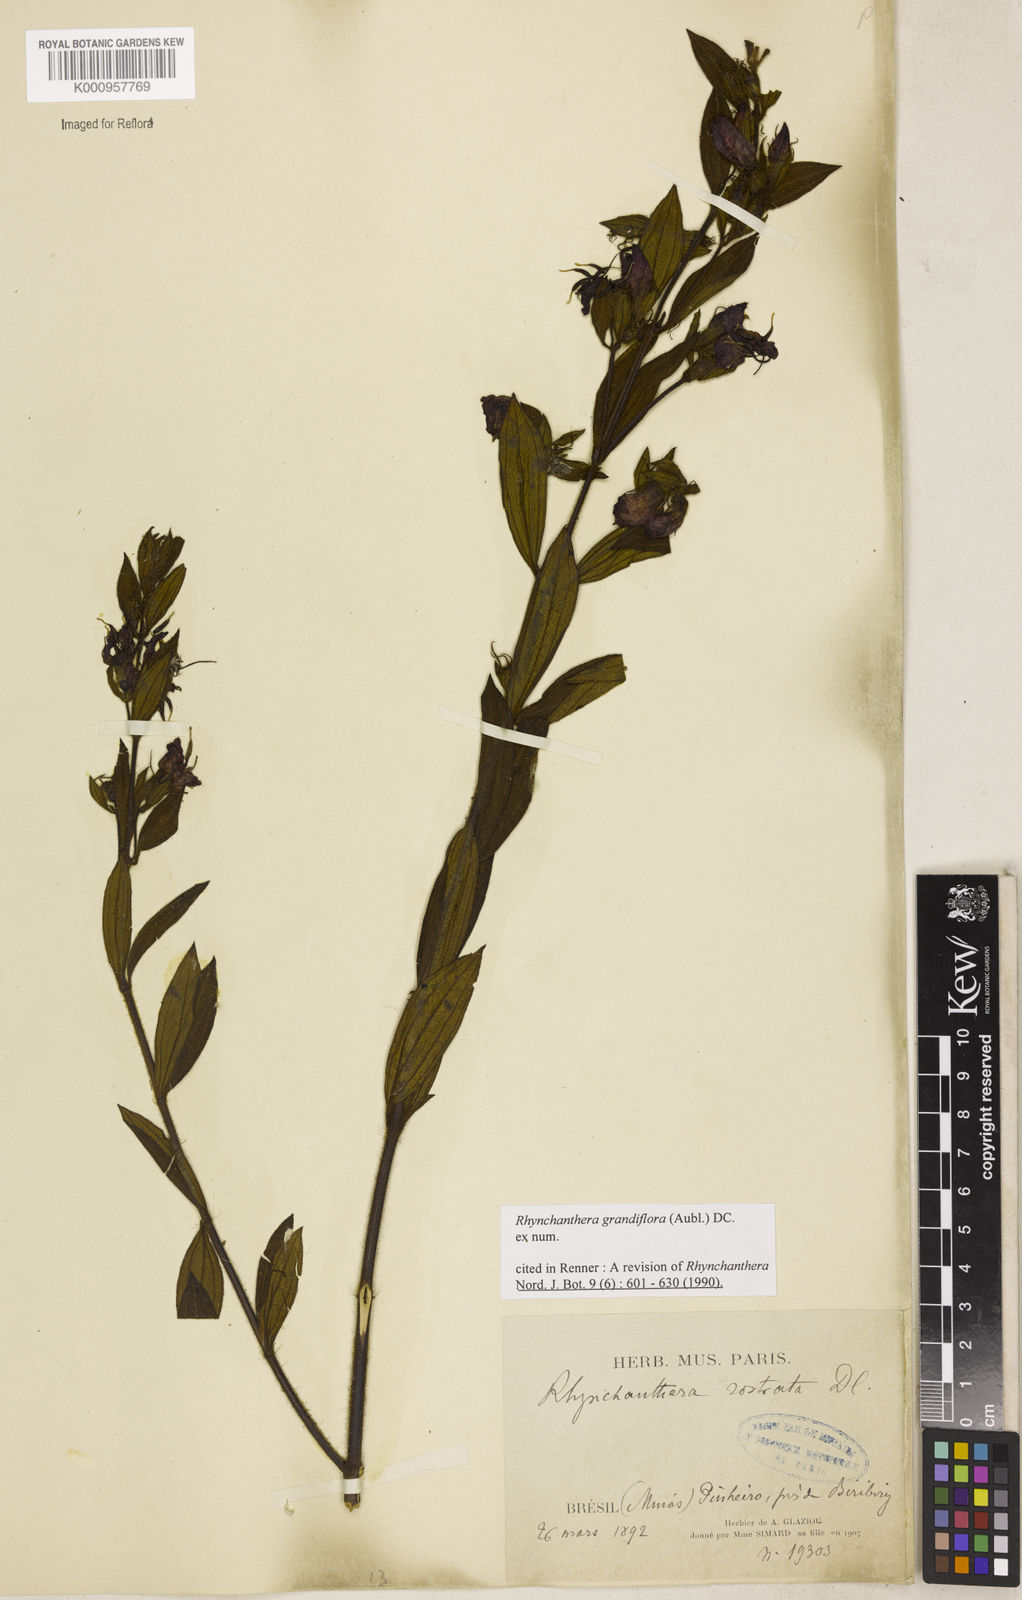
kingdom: Plantae
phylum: Tracheophyta
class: Magnoliopsida
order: Myrtales
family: Melastomataceae
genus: Rhynchanthera
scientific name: Rhynchanthera grandiflora
